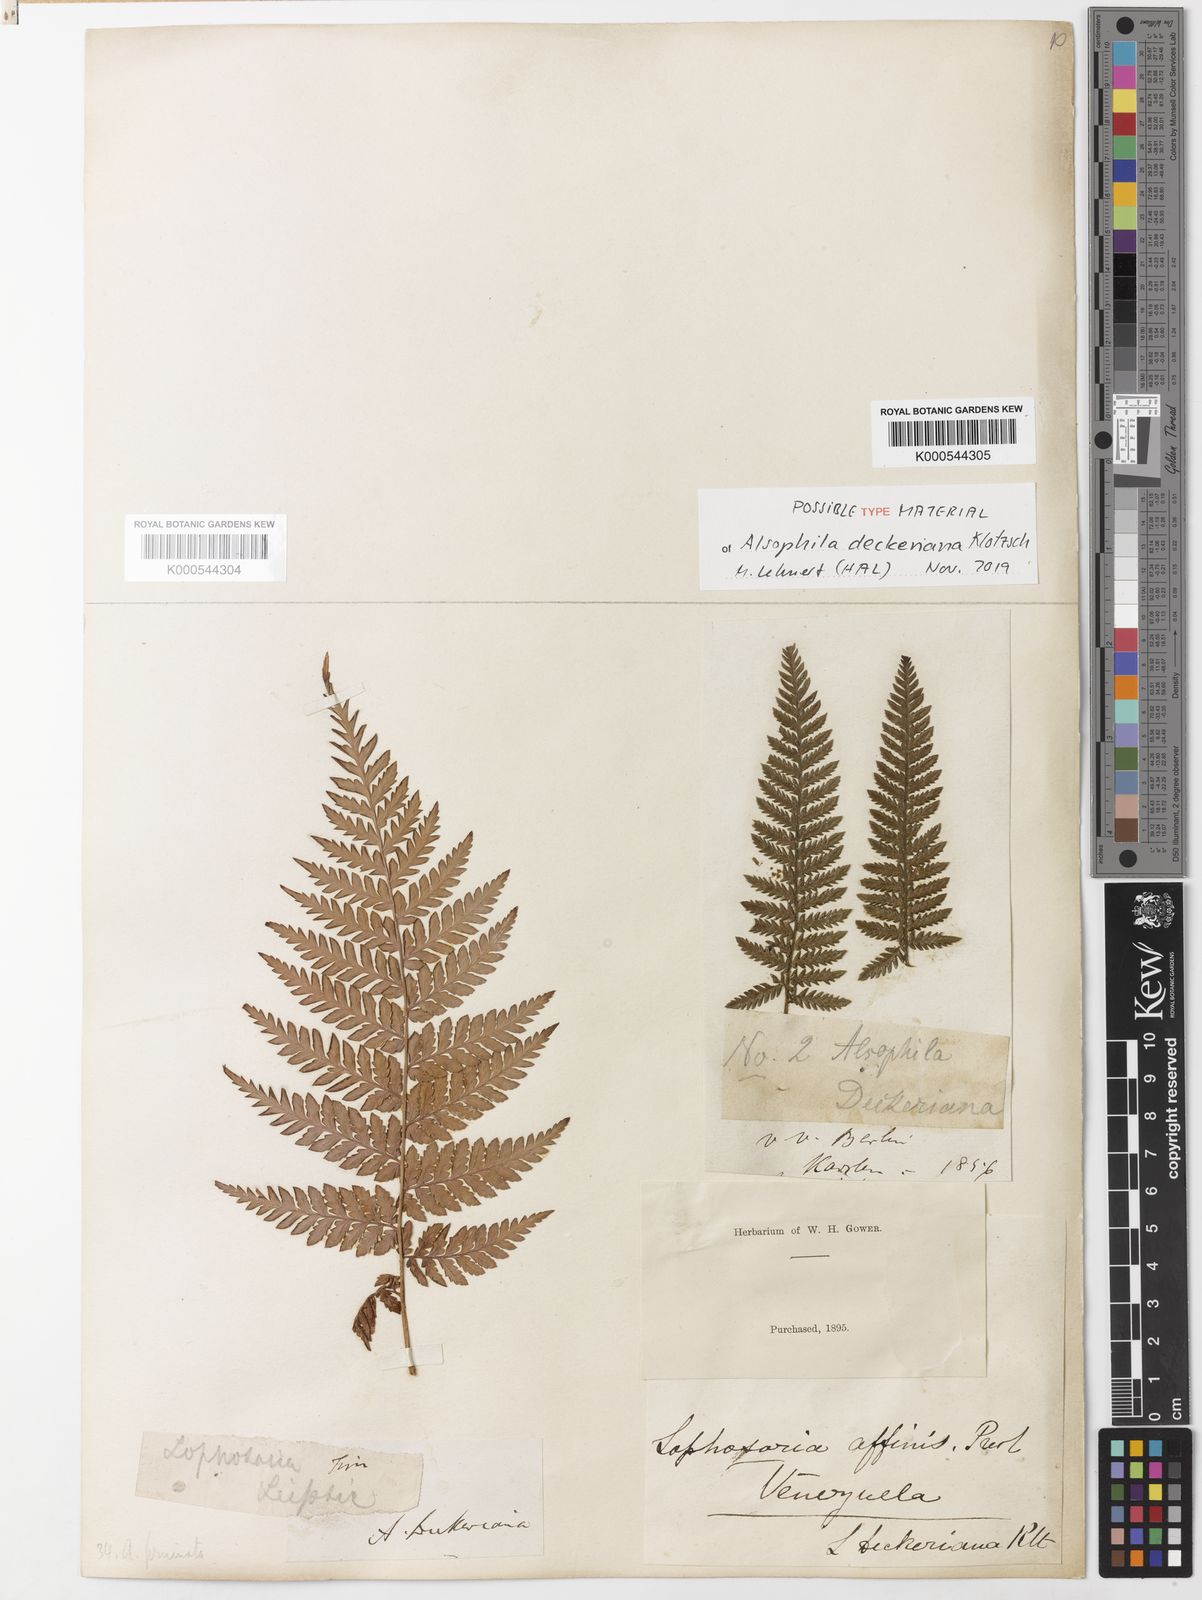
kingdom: Plantae
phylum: Tracheophyta
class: Polypodiopsida
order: Cyatheales
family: Dicksoniaceae
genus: Lophosoria
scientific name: Lophosoria quadripinnata
